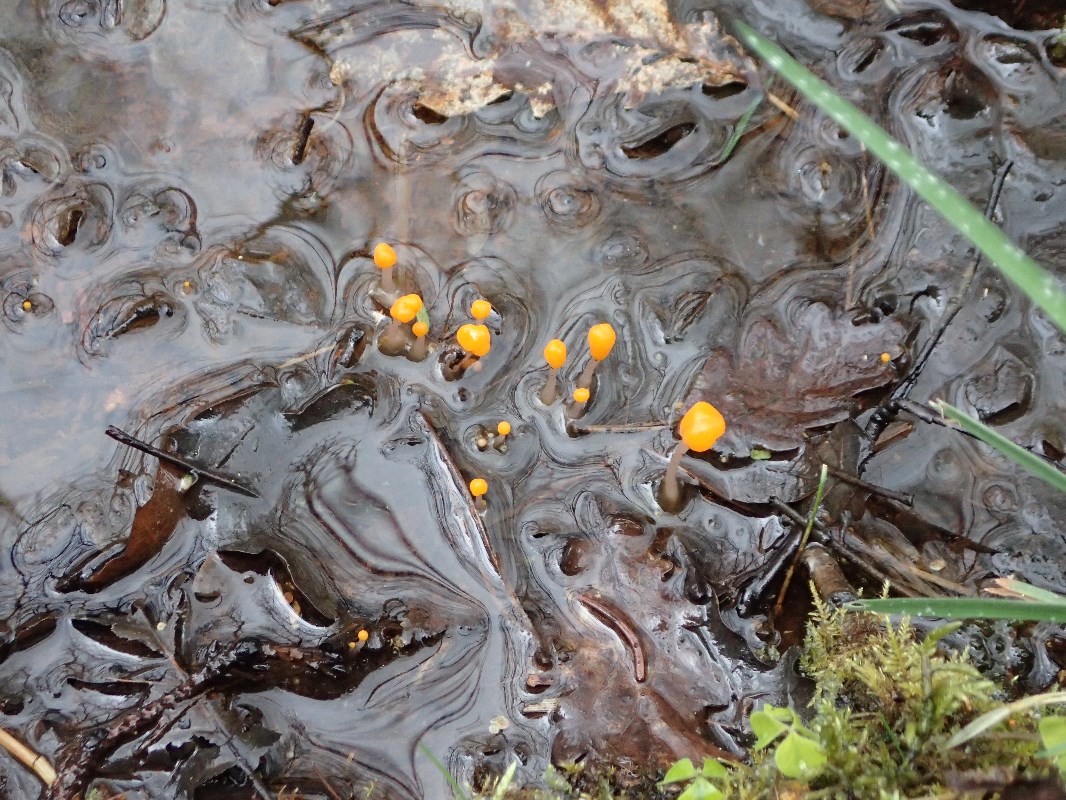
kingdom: Fungi
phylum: Ascomycota
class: Leotiomycetes
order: Helotiales
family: Cenangiaceae
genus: Mitrula
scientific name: Mitrula paludosa
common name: gul nøkketunge
